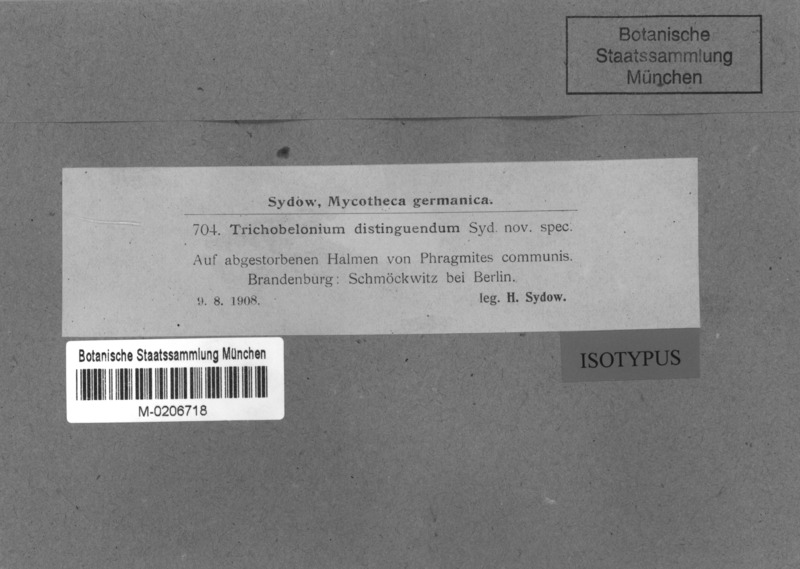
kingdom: Fungi
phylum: Ascomycota
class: Leotiomycetes
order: Helotiales
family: Mollisiaceae
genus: Trichobelonium
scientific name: Trichobelonium distinguendum
